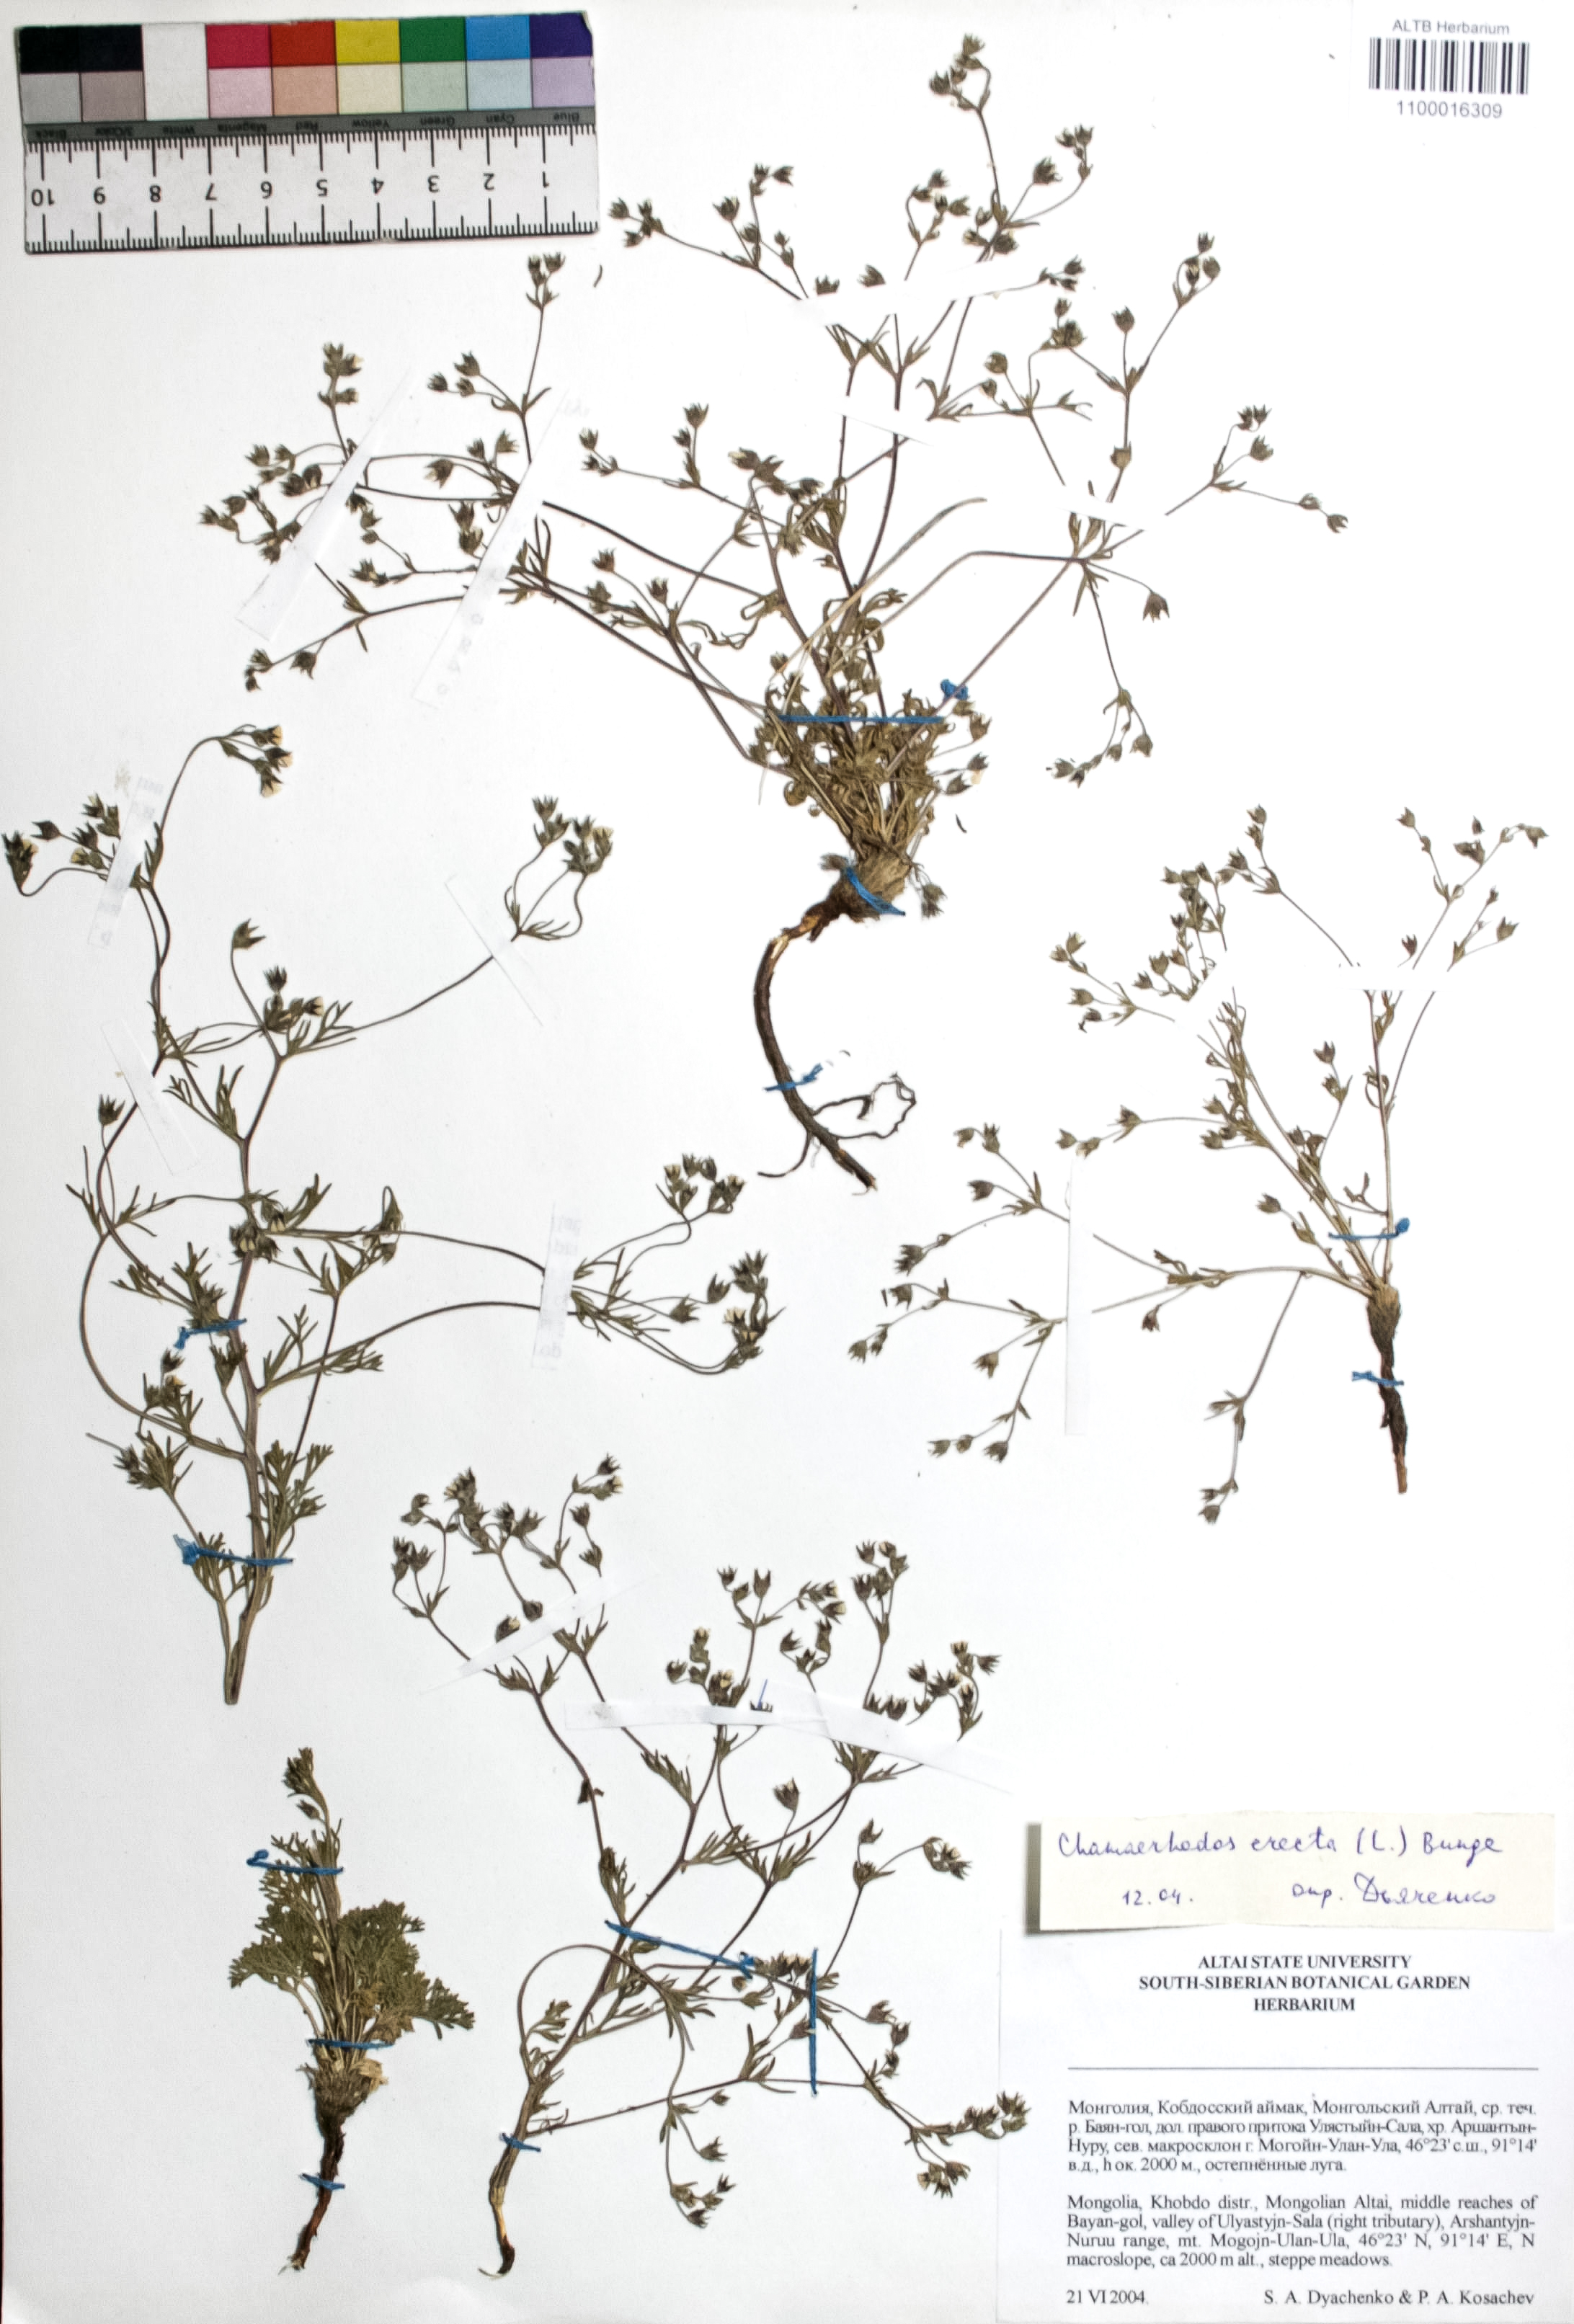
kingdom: Plantae
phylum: Tracheophyta
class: Magnoliopsida
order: Rosales
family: Rosaceae
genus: Chamaerhodos
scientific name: Chamaerhodos erecta
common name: American chamaerhodos
